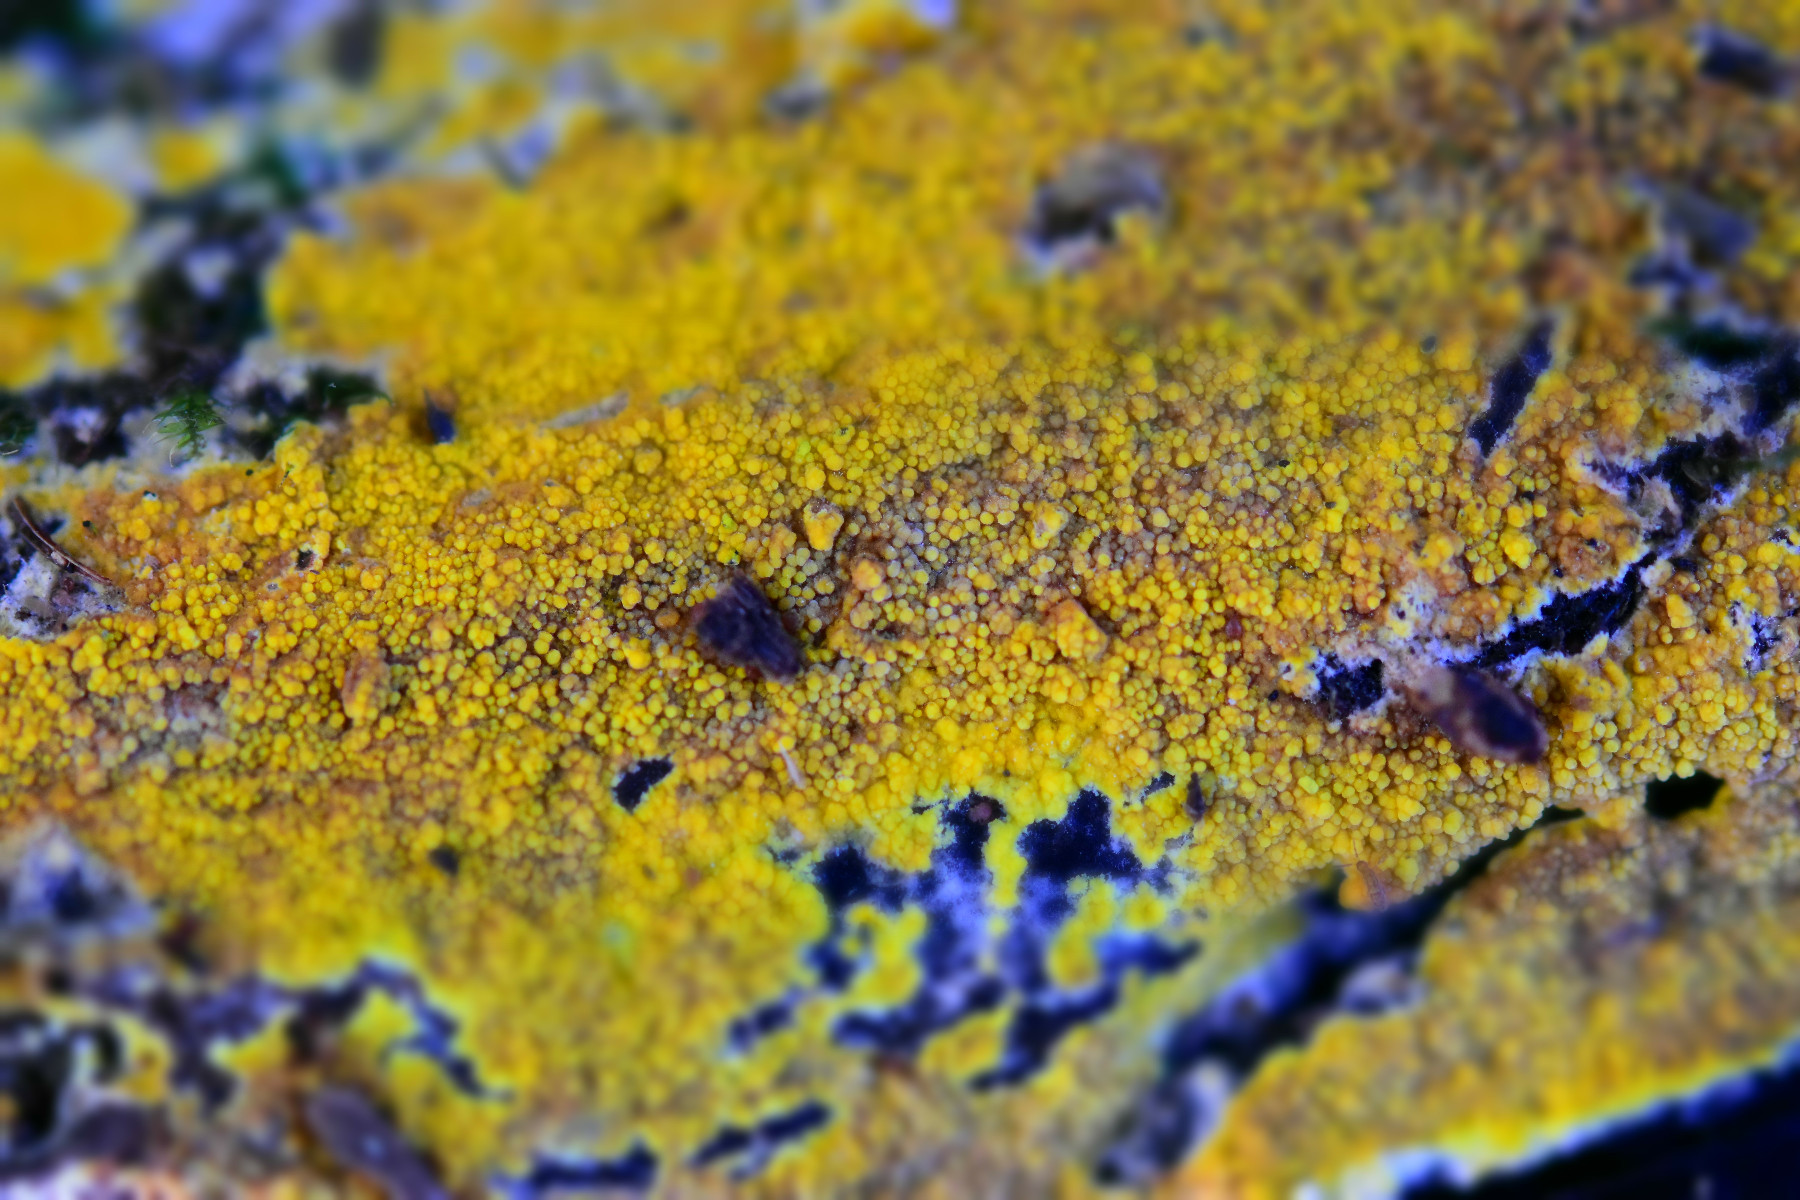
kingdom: Fungi
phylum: Basidiomycota
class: Agaricomycetes
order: Polyporales
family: Meruliaceae
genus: Phlebiodontia
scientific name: Phlebiodontia subochracea
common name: svovl-åresvamp
